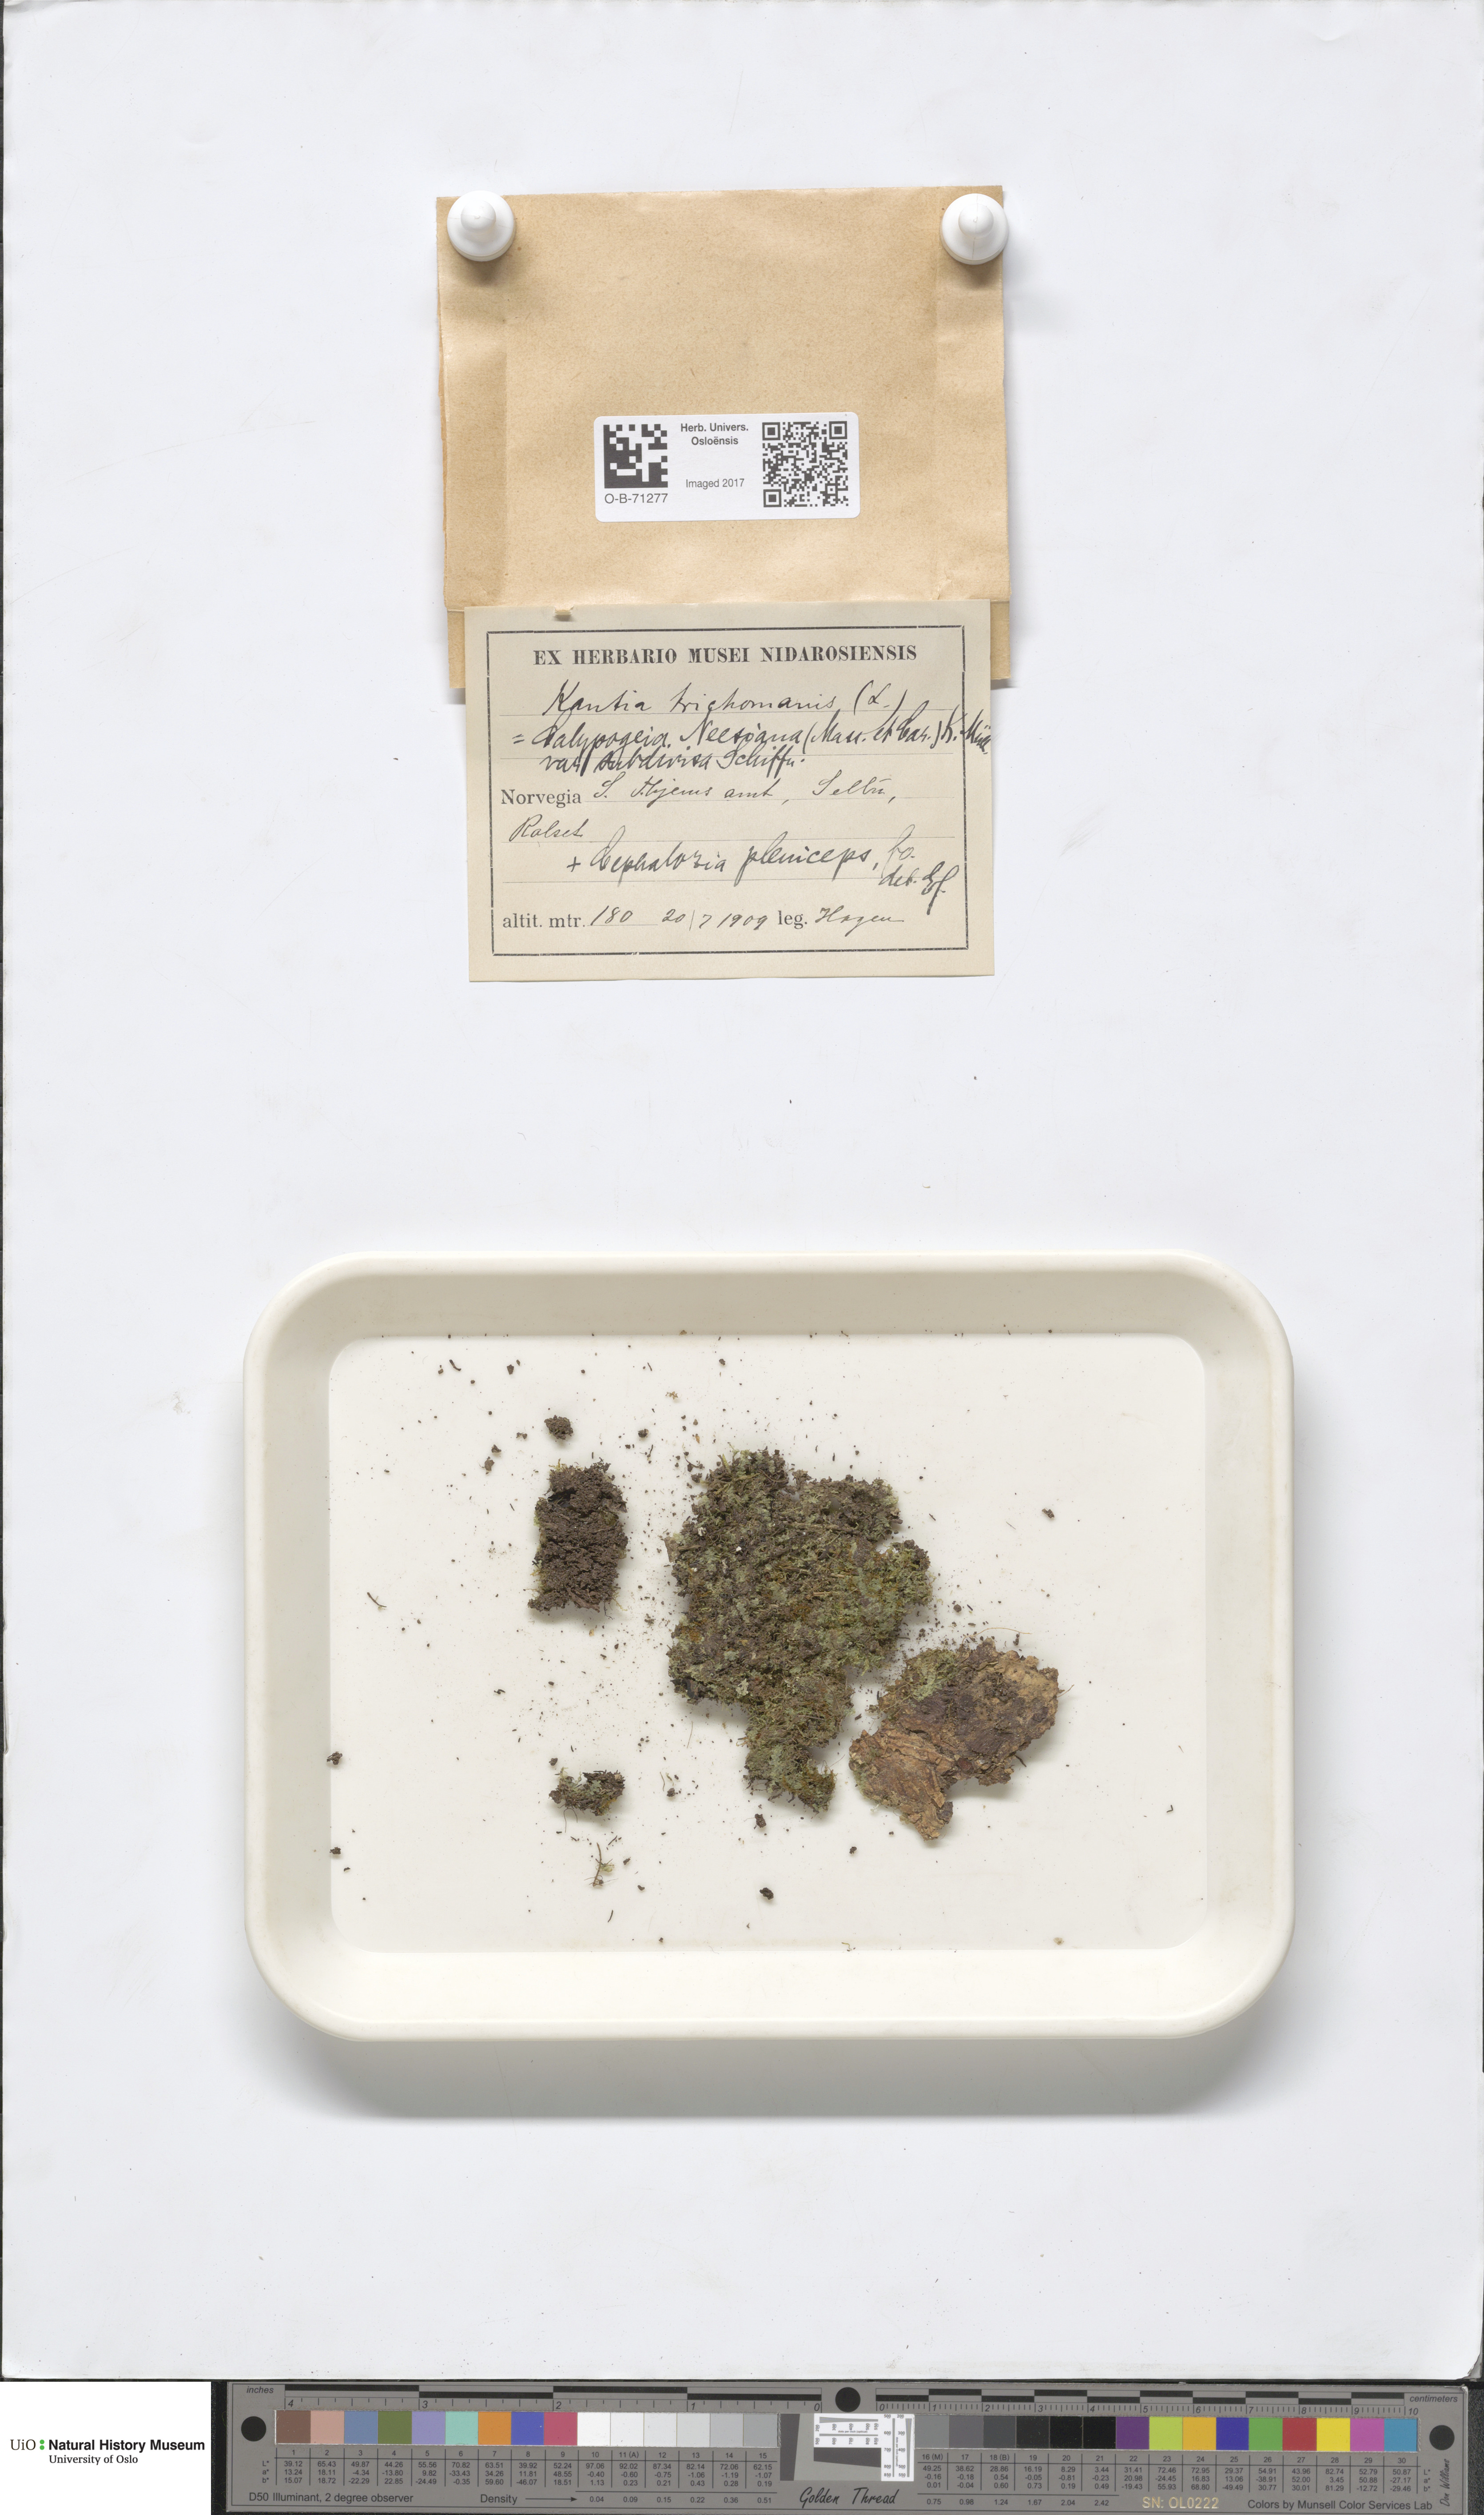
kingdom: Plantae
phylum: Marchantiophyta
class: Jungermanniopsida
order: Jungermanniales
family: Calypogeiaceae
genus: Calypogeia
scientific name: Calypogeia integristipula
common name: Meylan s pouchwort
